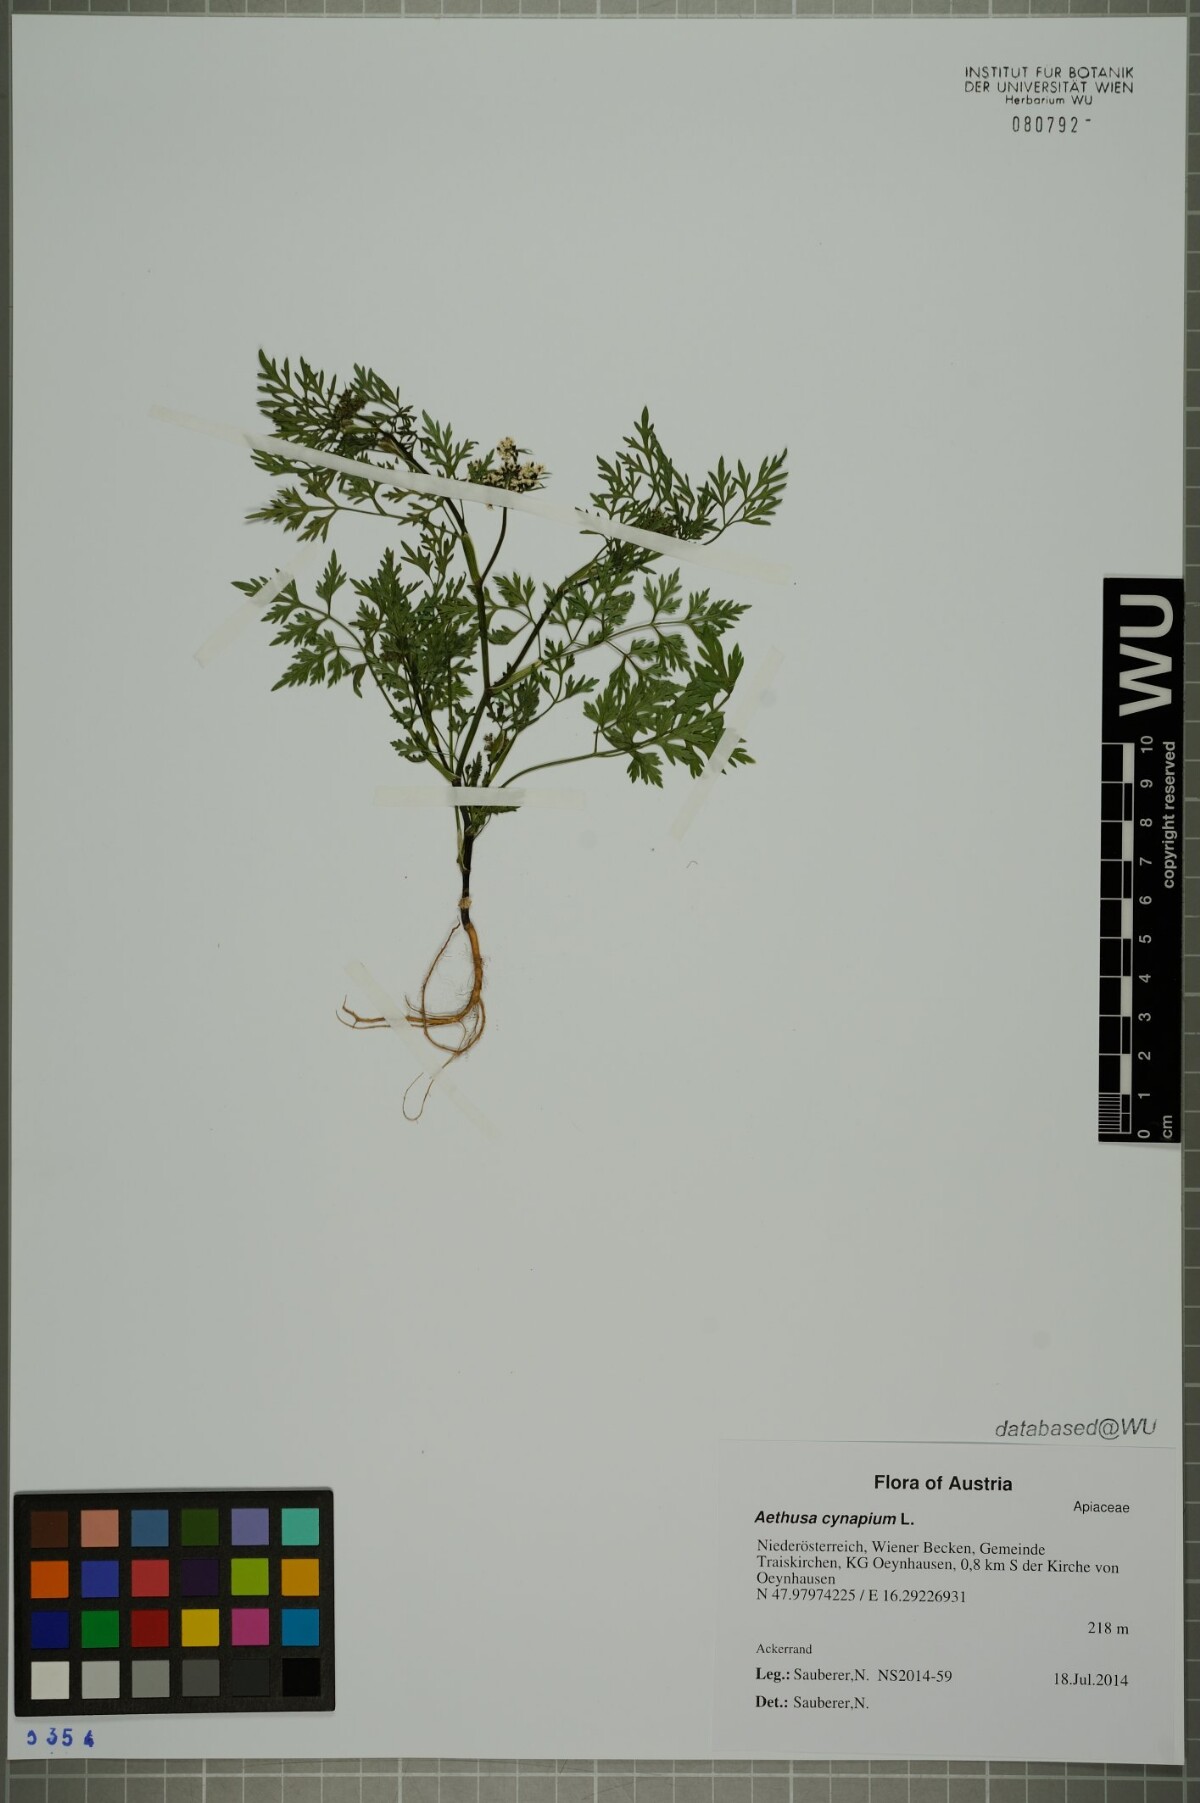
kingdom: Plantae
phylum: Tracheophyta
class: Magnoliopsida
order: Apiales
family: Apiaceae
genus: Aethusa
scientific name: Aethusa cynapium
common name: Fool's parsley
